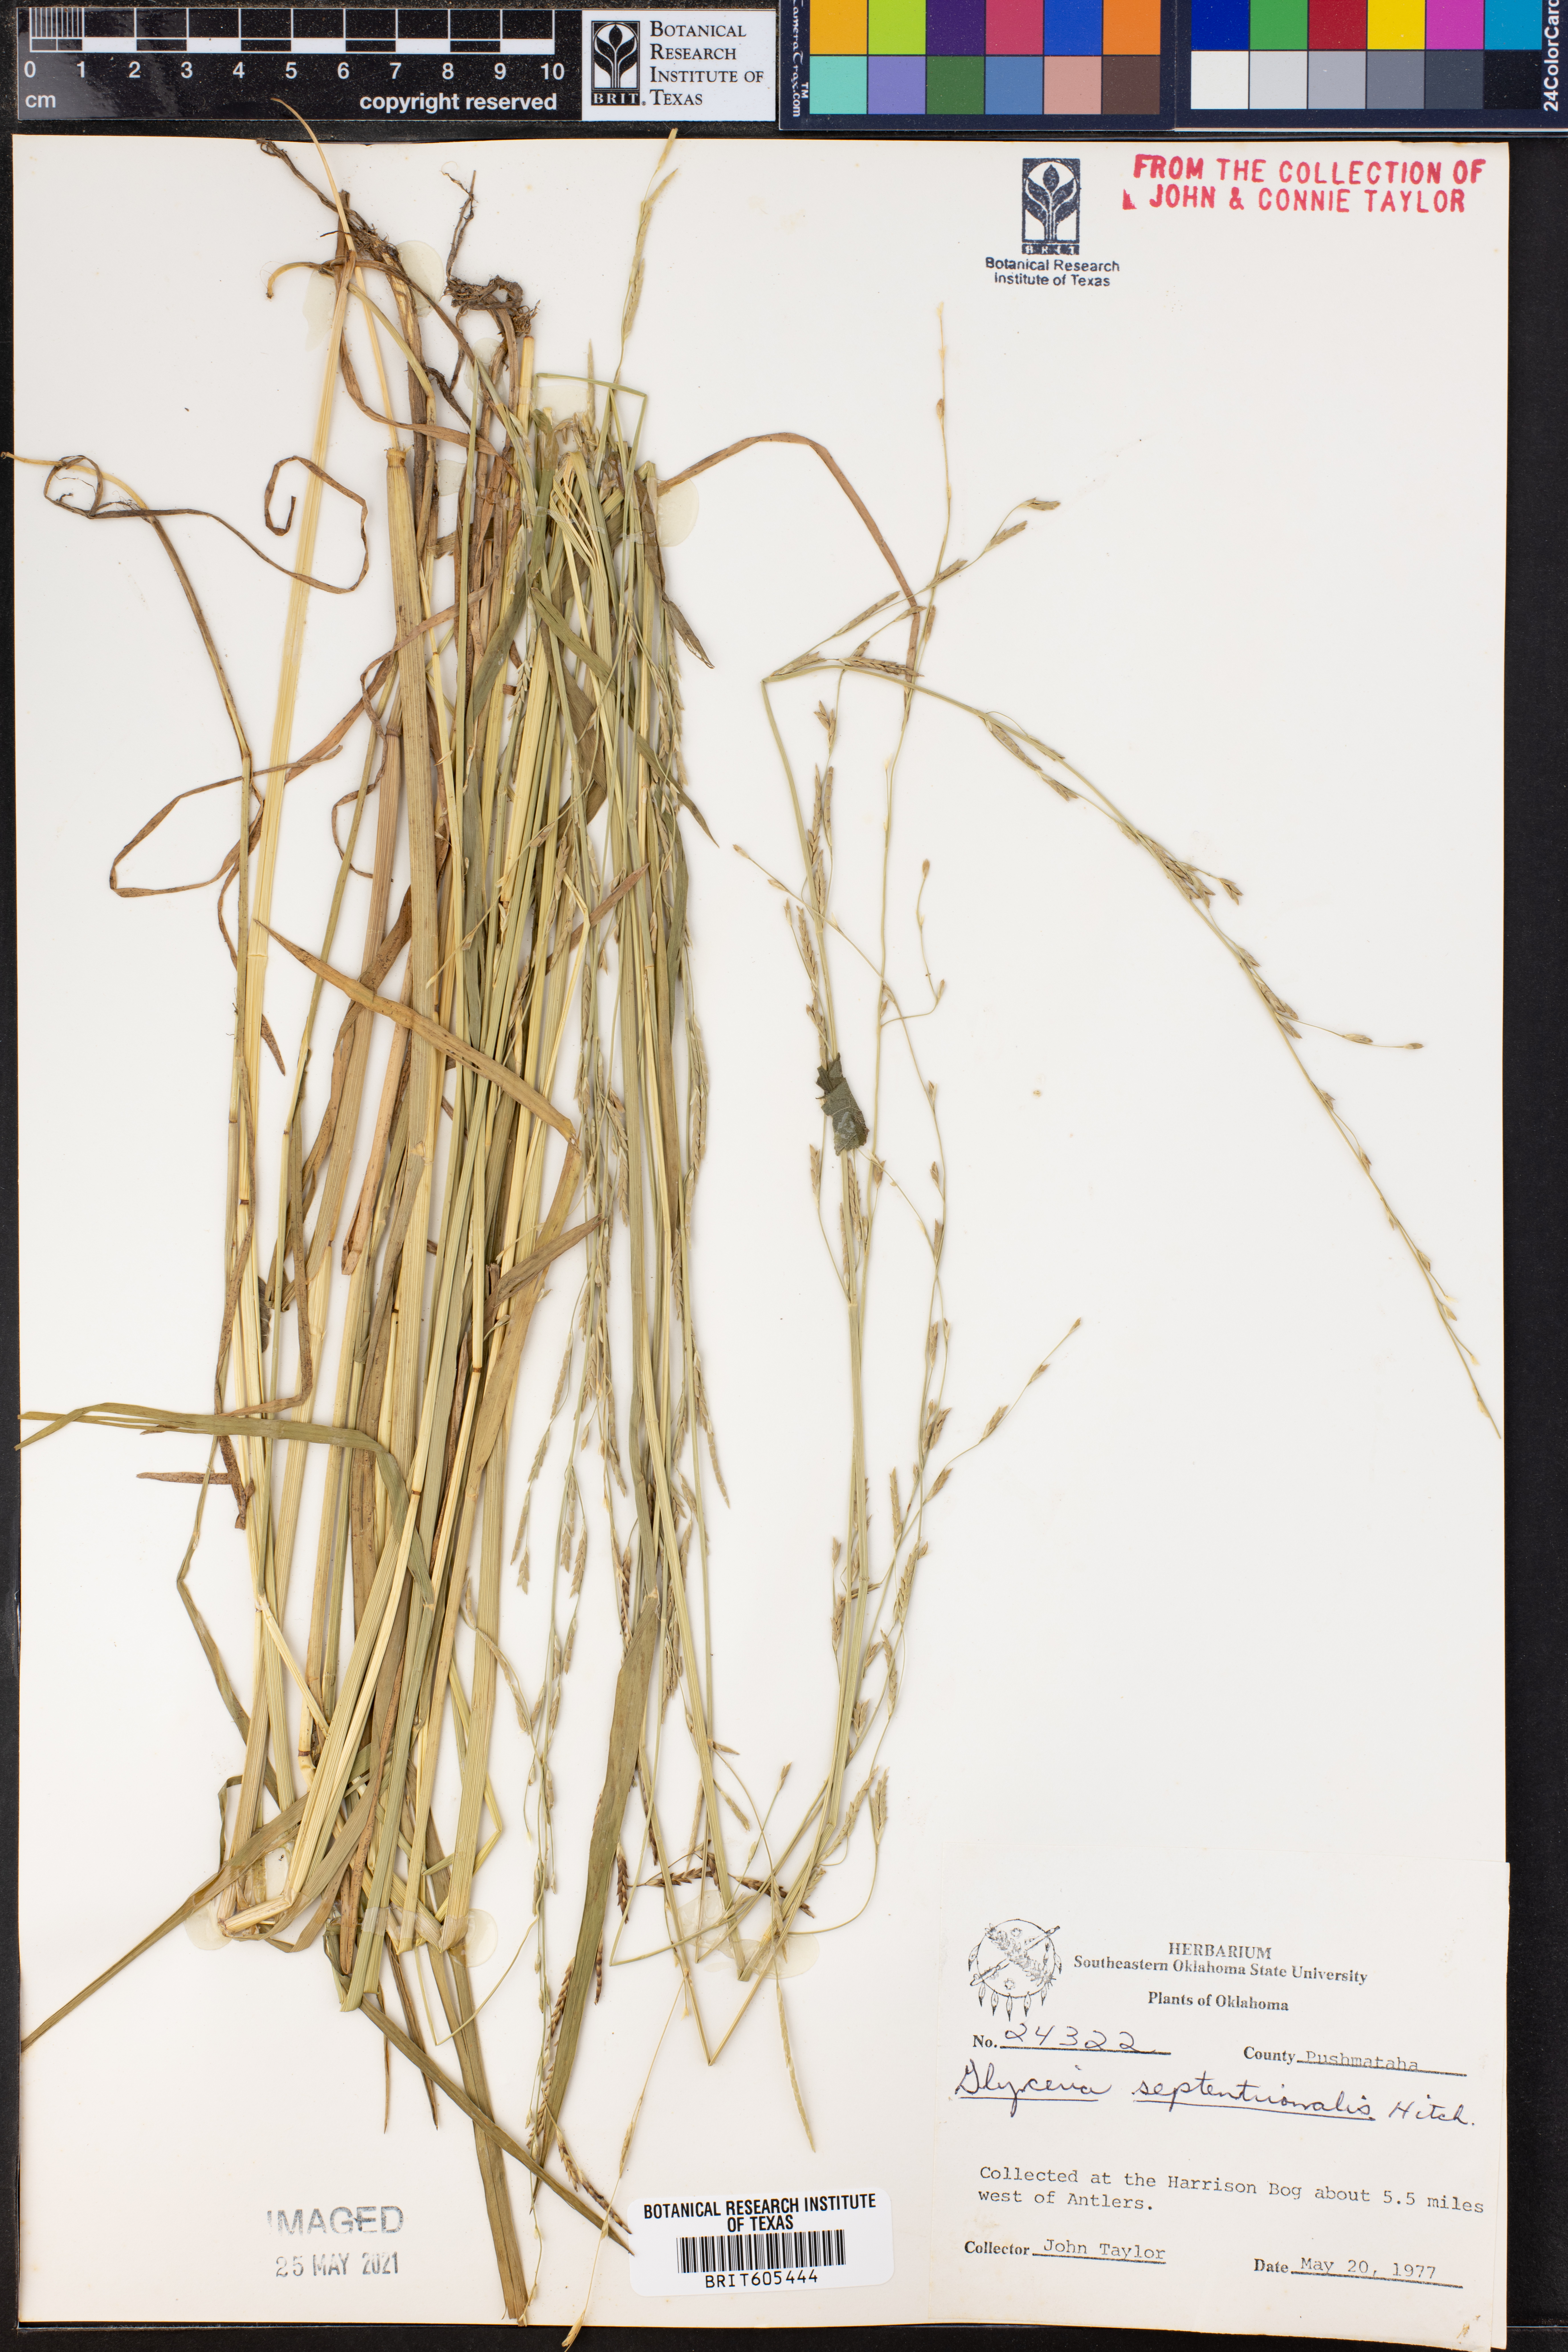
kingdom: Plantae
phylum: Tracheophyta
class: Liliopsida
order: Poales
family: Poaceae
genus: Glyceria
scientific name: Glyceria septentrionalis
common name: Eastern mannagrass
